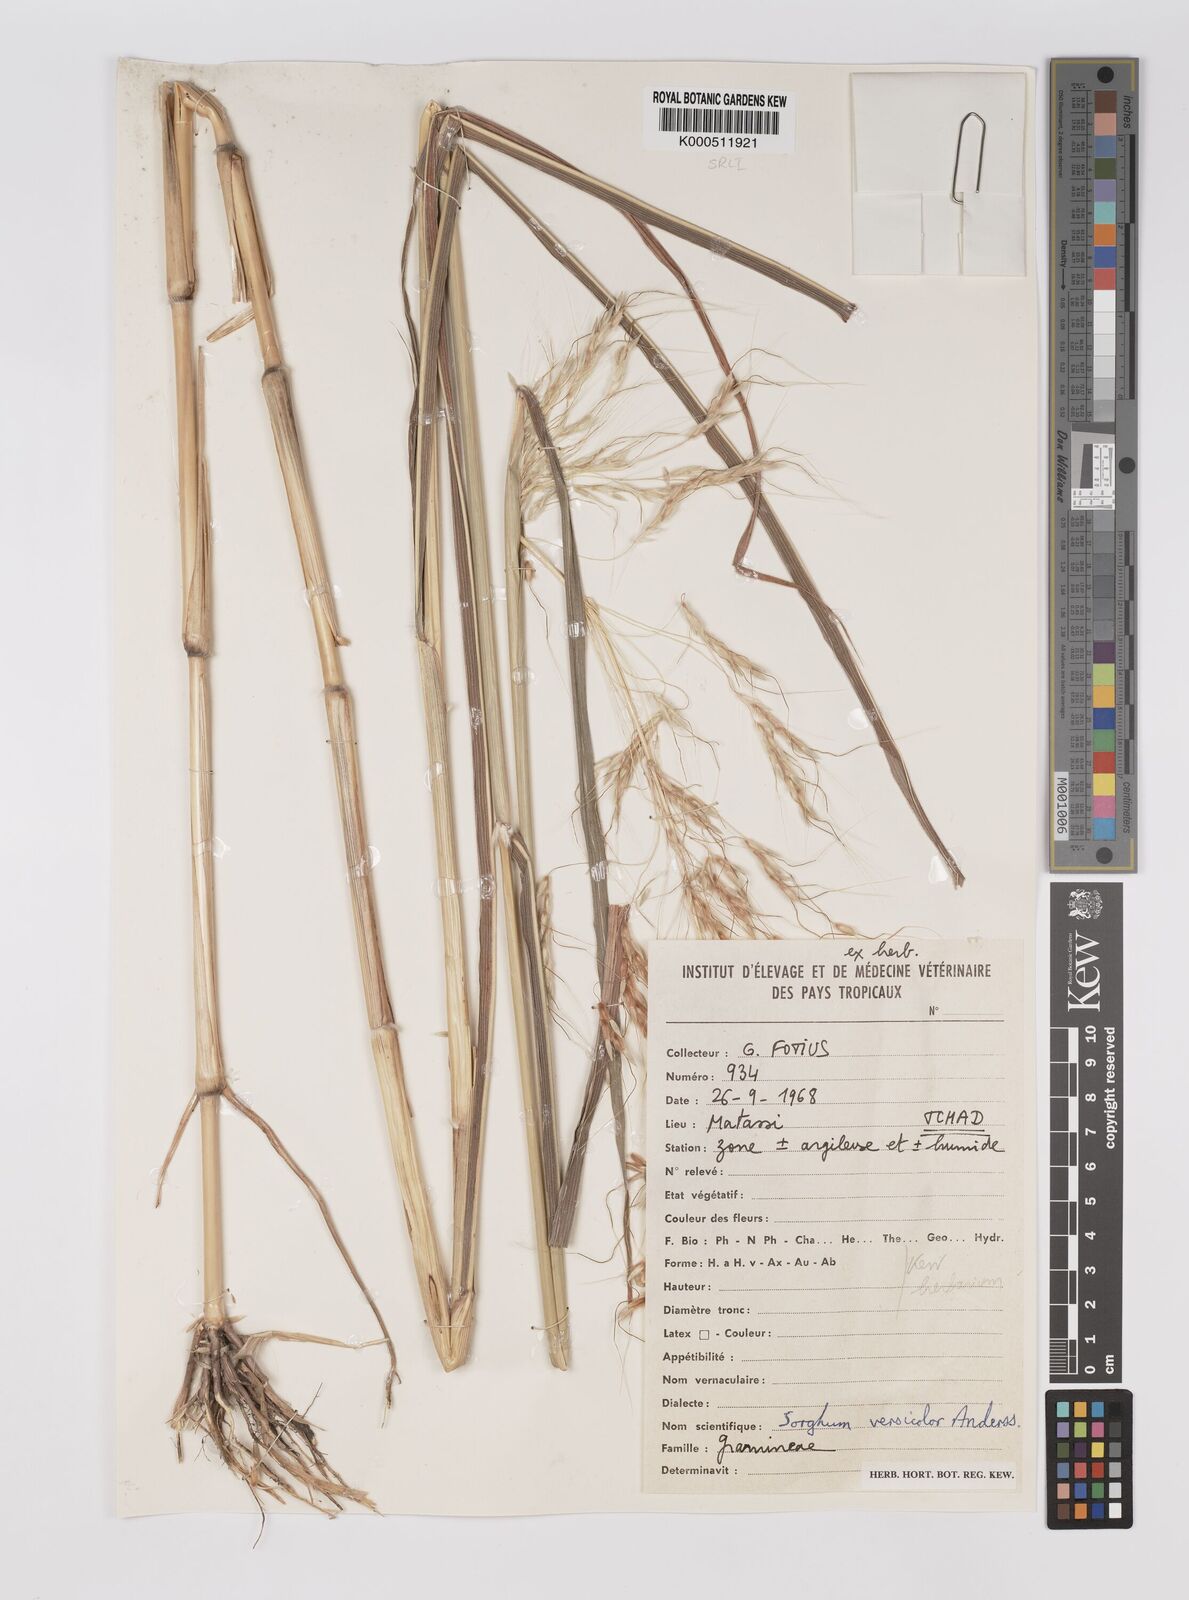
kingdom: Plantae
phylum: Tracheophyta
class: Liliopsida
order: Poales
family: Poaceae
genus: Sarga
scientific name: Sarga purpureosericea
